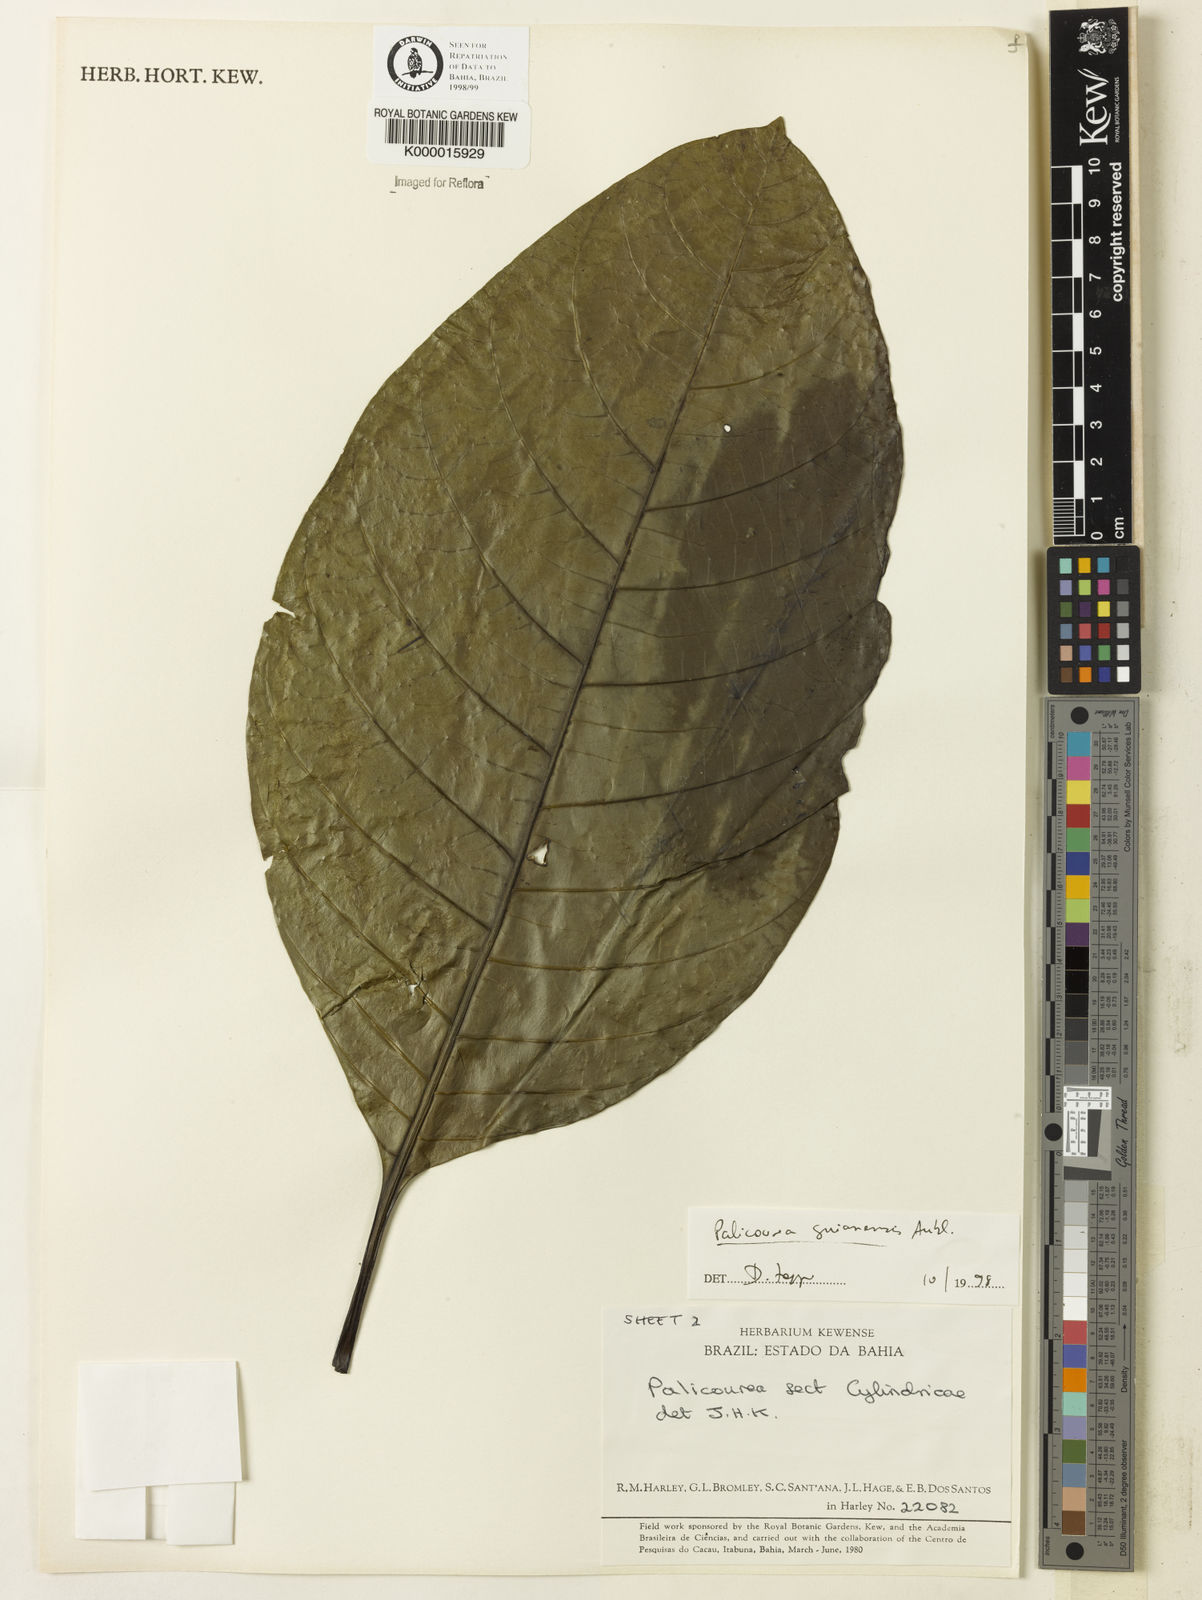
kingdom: Plantae
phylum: Tracheophyta
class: Magnoliopsida
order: Gentianales
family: Rubiaceae
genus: Palicourea
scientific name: Palicourea guianensis
